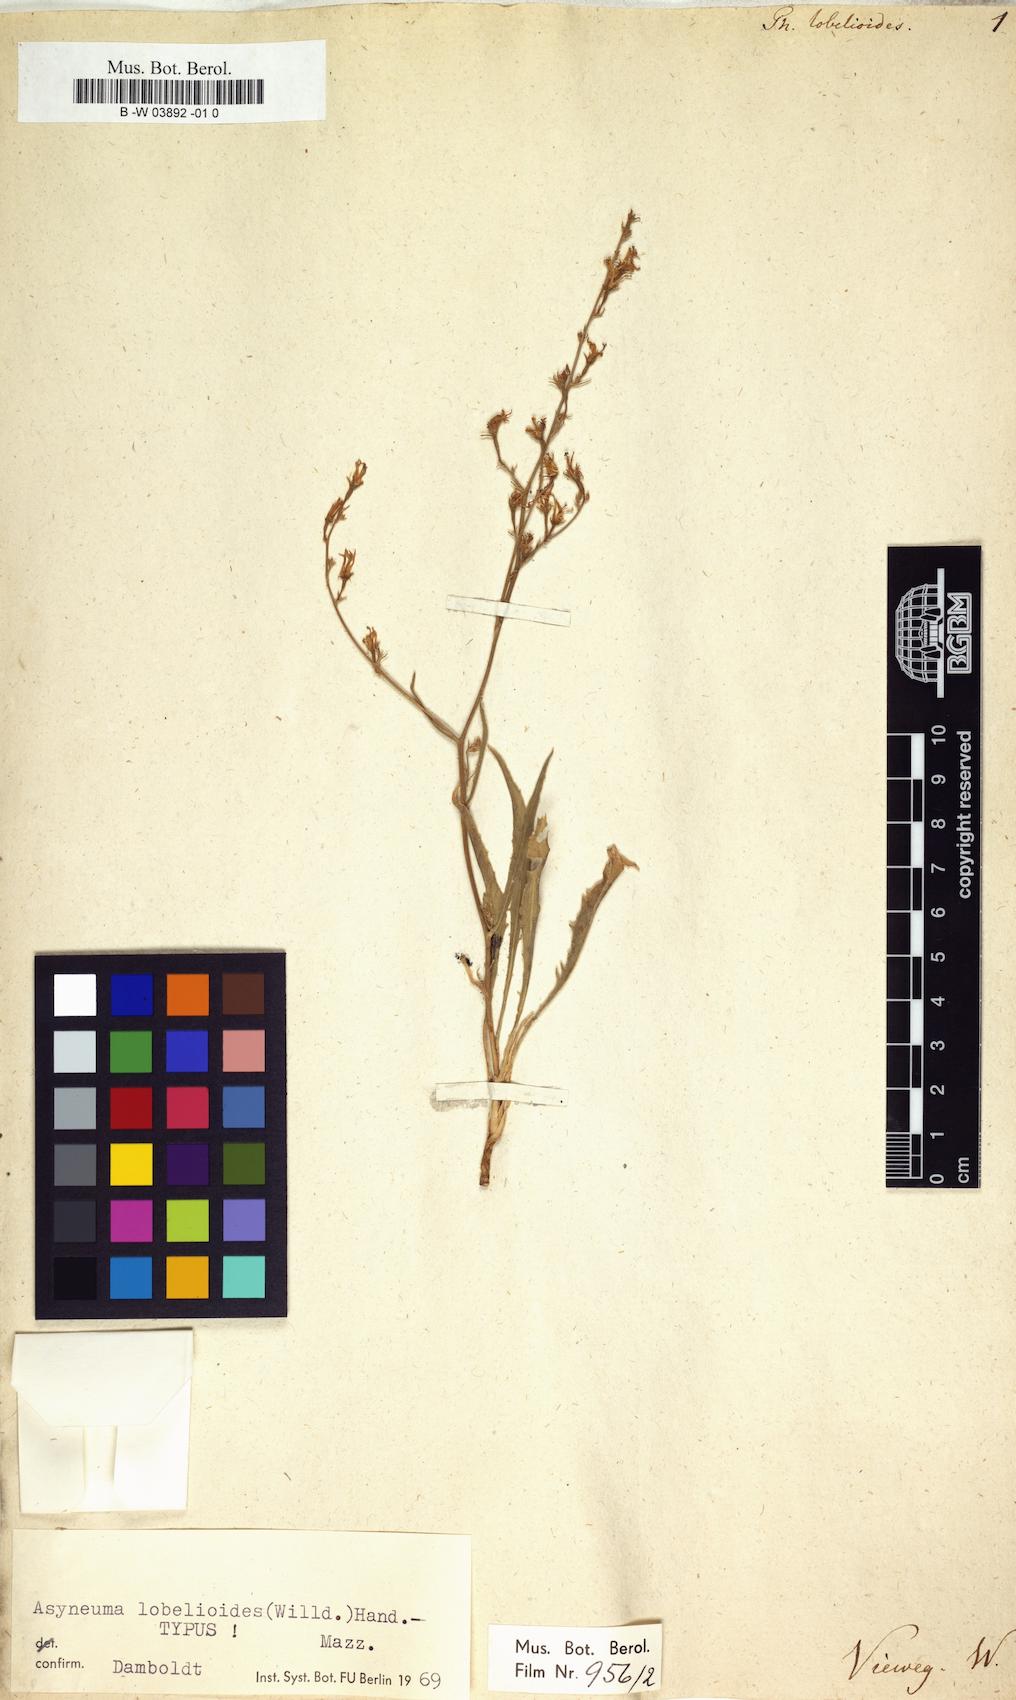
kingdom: Plantae
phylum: Tracheophyta
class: Magnoliopsida
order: Asterales
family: Campanulaceae
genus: Asyneuma
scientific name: Asyneuma lobelioides
